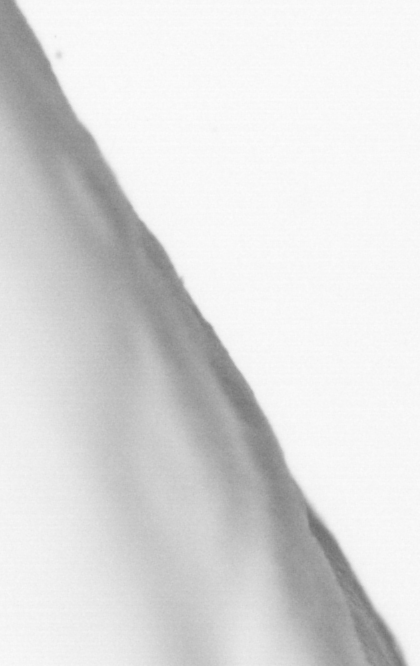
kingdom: Animalia
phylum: Chordata
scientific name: Chordata
